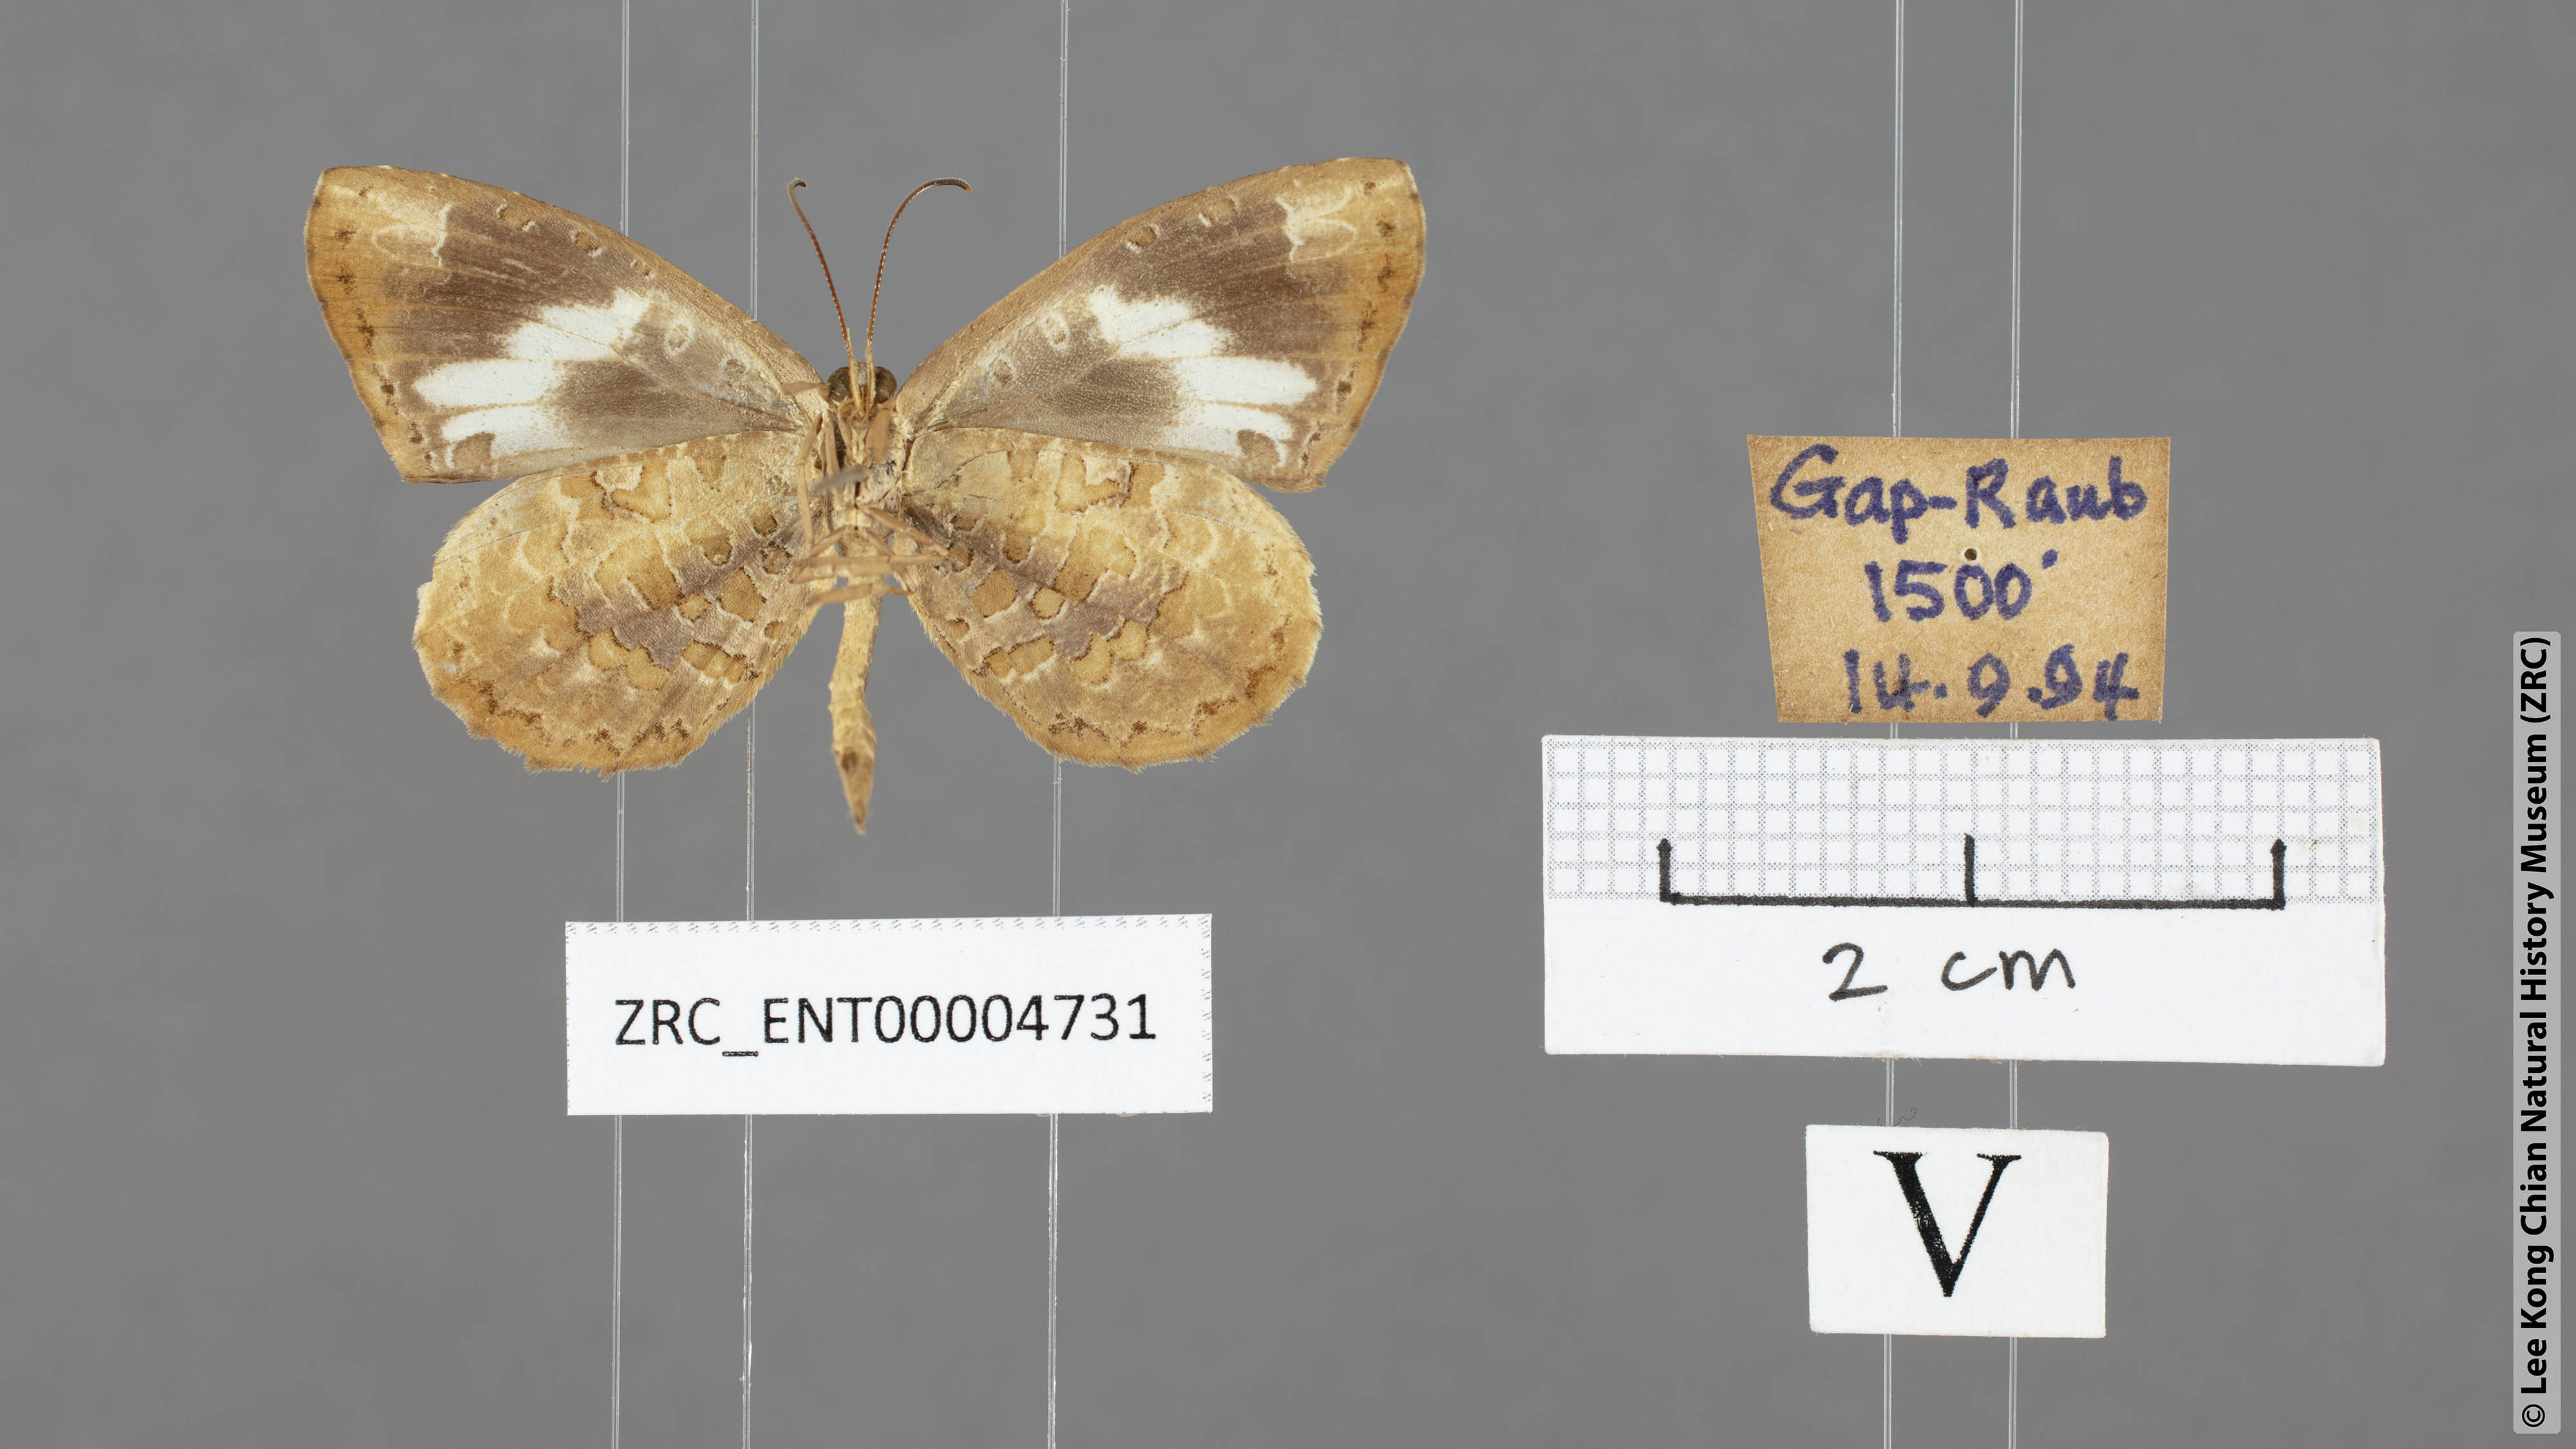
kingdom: Animalia
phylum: Arthropoda
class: Insecta
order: Lepidoptera
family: Lycaenidae
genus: Miletus
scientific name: Miletus gallus
